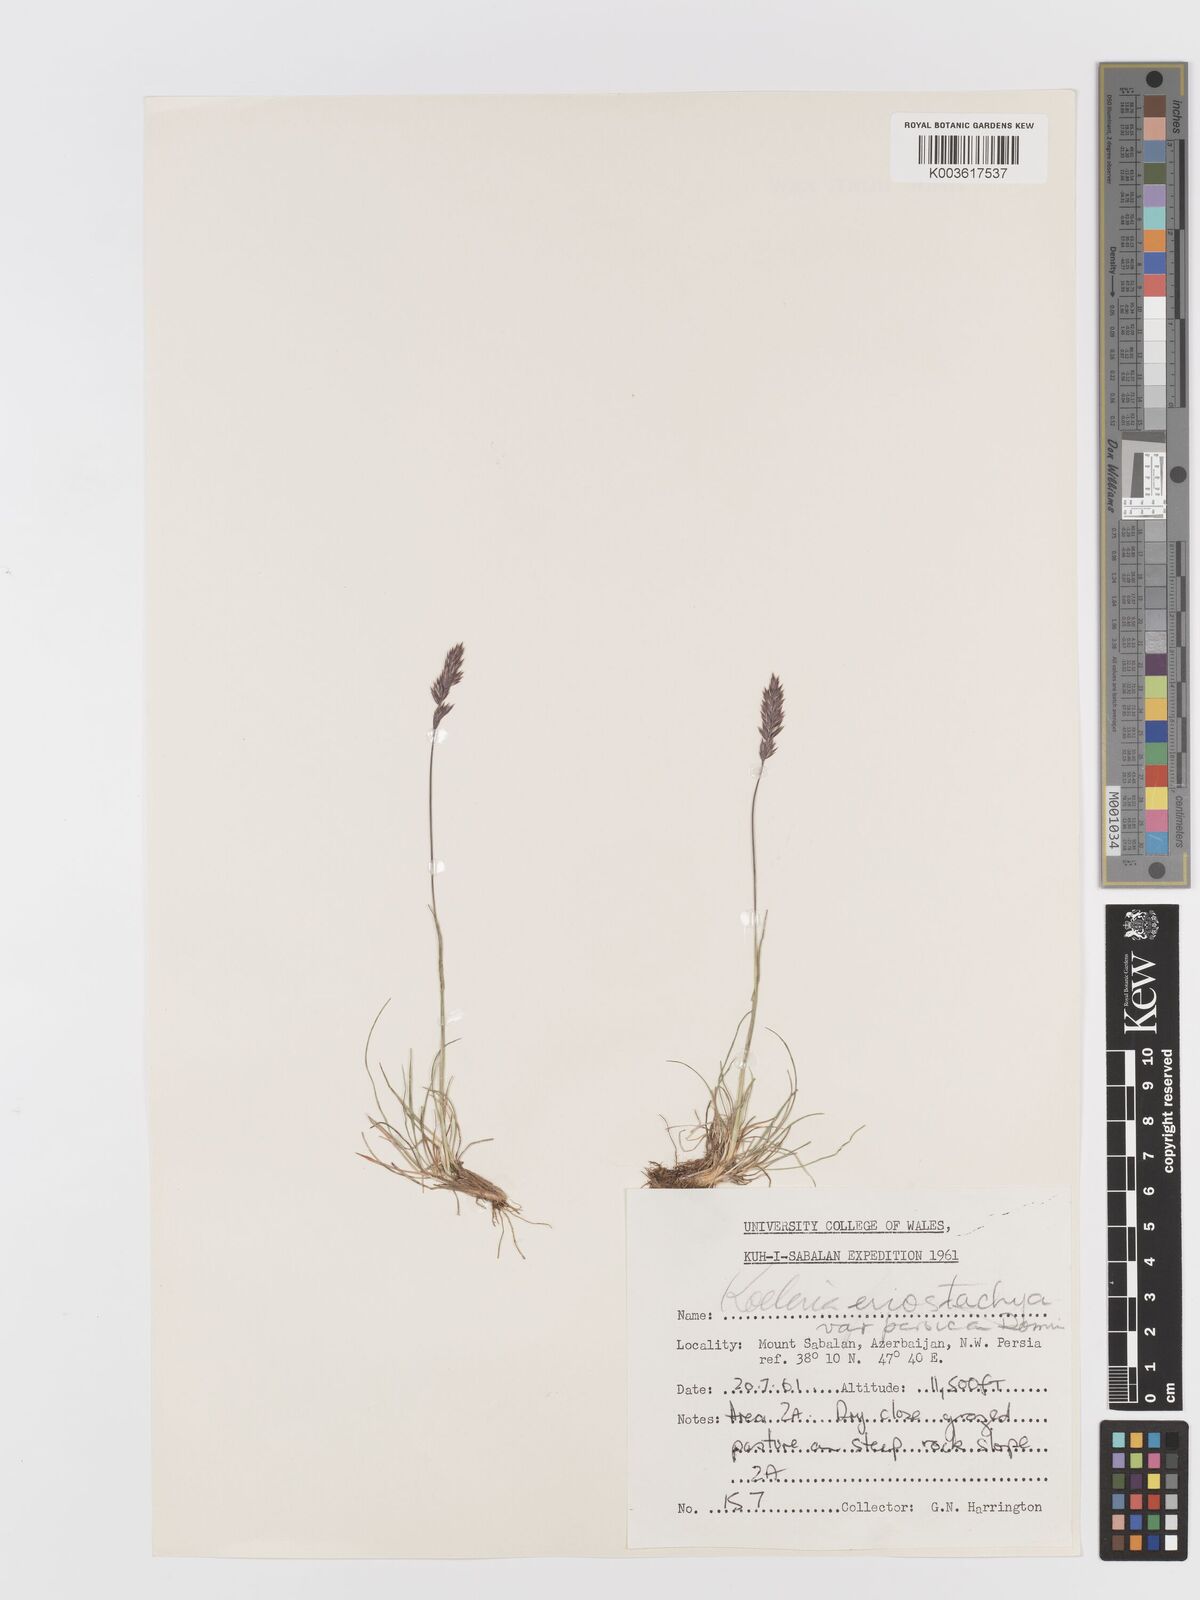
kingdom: Plantae
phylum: Tracheophyta
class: Liliopsida
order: Poales
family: Poaceae
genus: Koeleria
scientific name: Koeleria eriostachya
